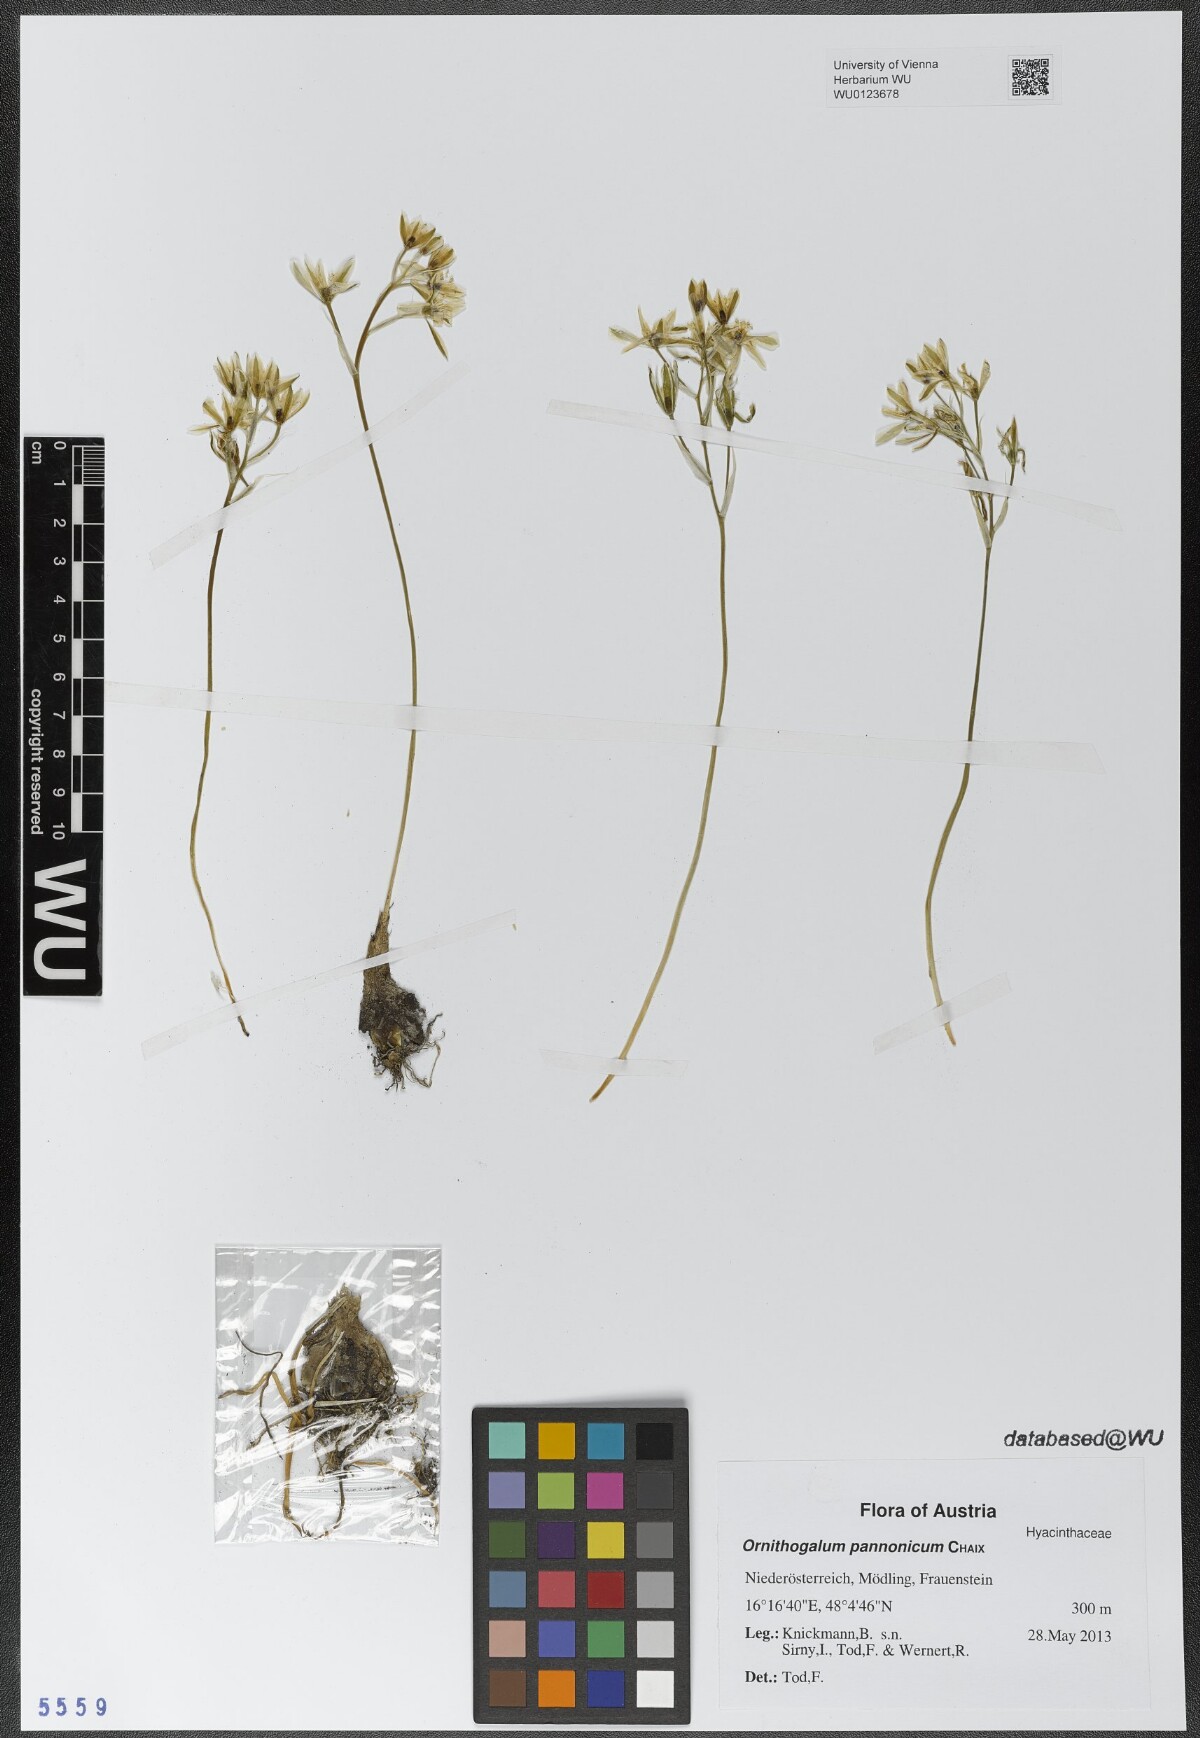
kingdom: Plantae
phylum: Tracheophyta
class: Liliopsida
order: Asparagales
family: Asparagaceae
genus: Ornithogalum
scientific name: Ornithogalum comosum
